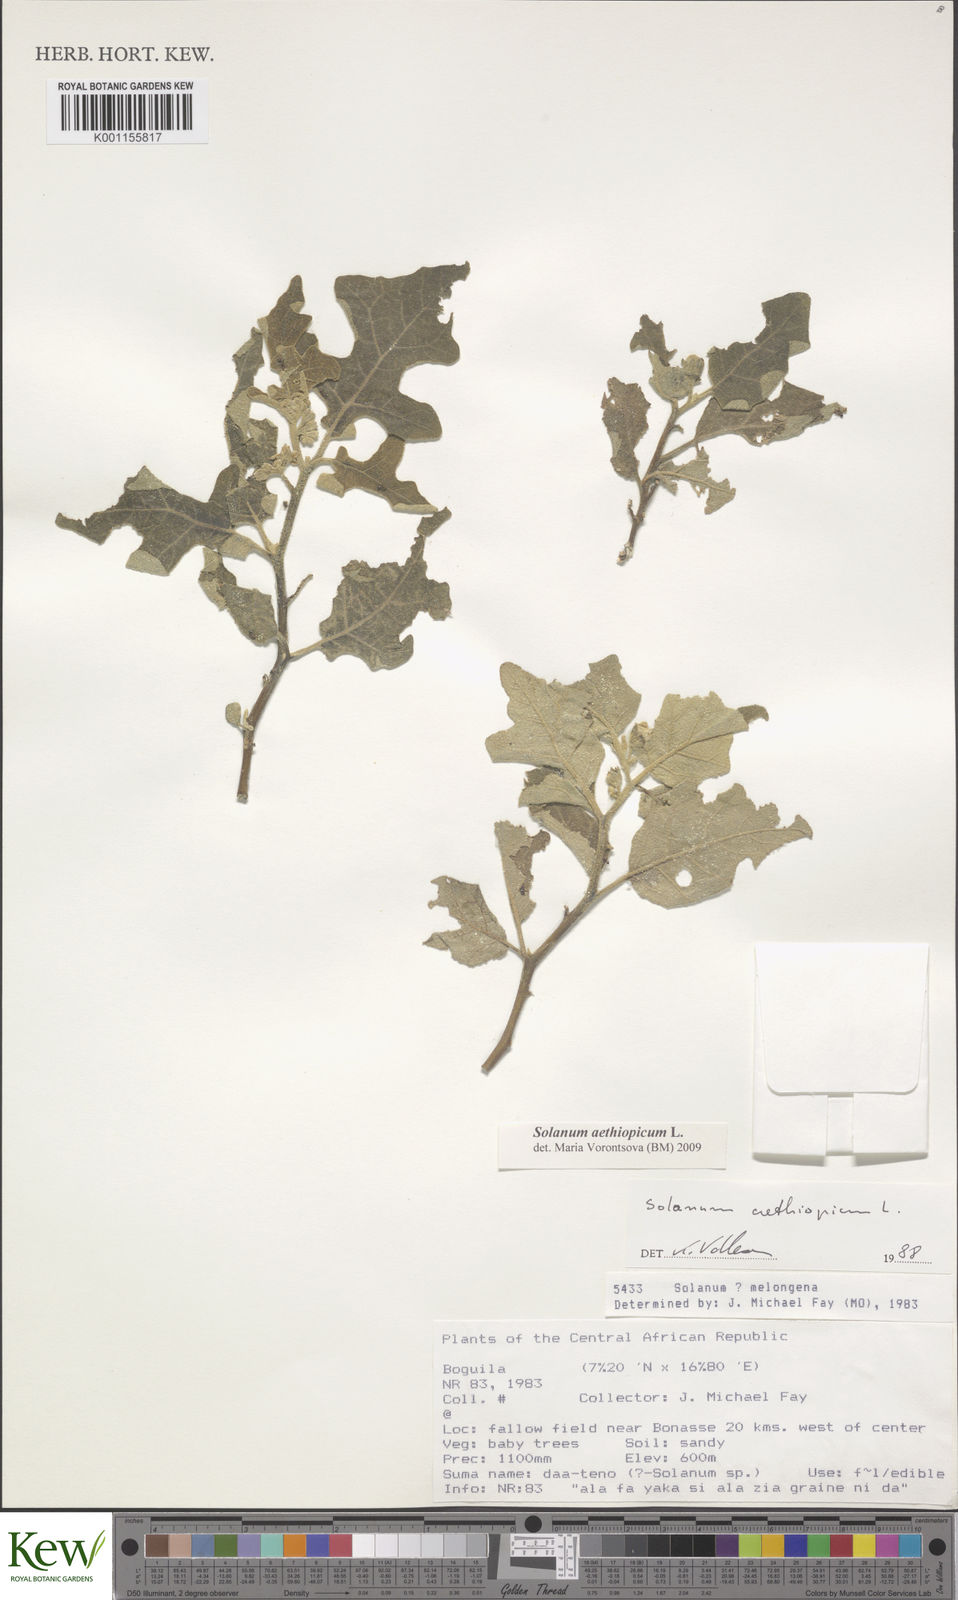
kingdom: Plantae
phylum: Tracheophyta
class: Magnoliopsida
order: Solanales
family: Solanaceae
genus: Solanum
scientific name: Solanum aethiopicum
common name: Gilo
